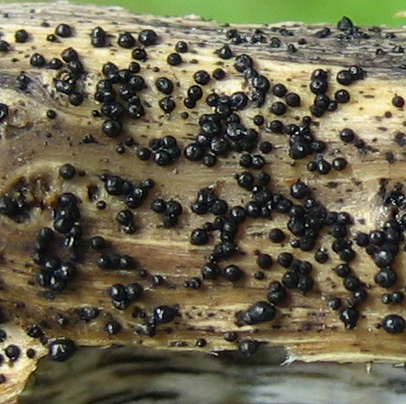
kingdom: Fungi
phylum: Ascomycota
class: Dothideomycetes
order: Pleosporales
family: Leptosphaeriaceae
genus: Leptosphaeria
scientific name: Leptosphaeria
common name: kulkegle
